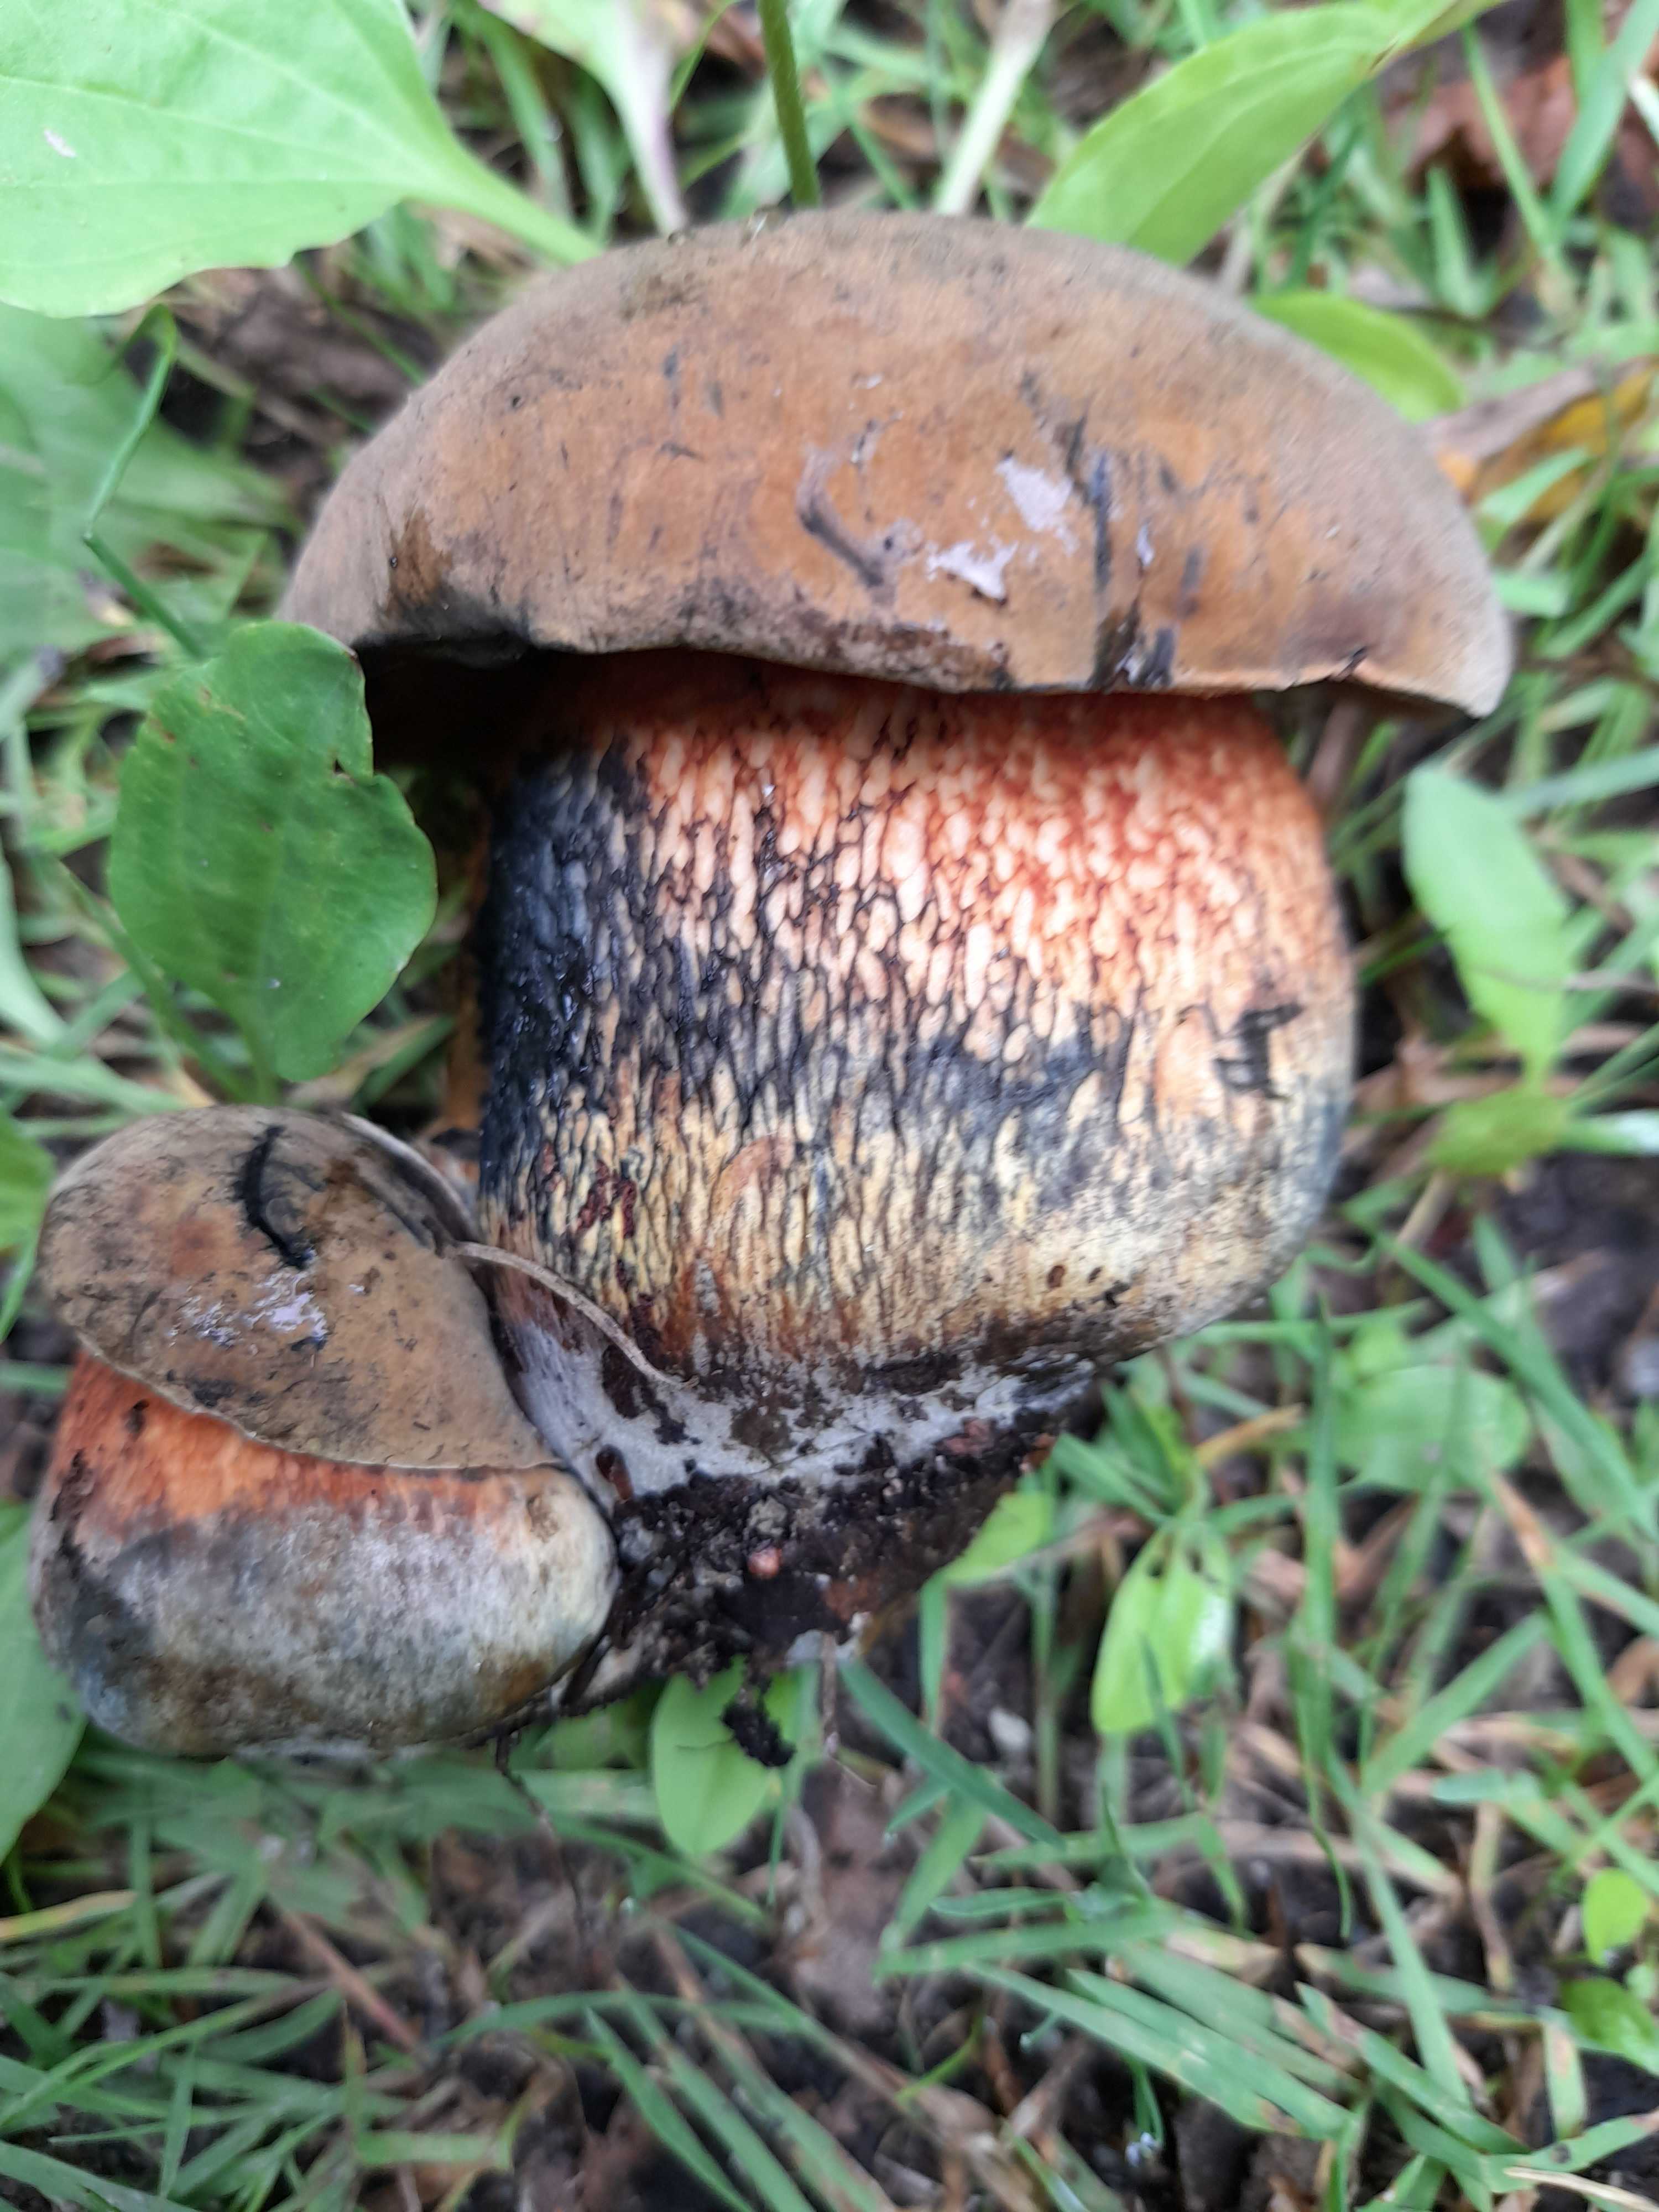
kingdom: Fungi
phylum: Basidiomycota
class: Agaricomycetes
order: Boletales
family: Boletaceae
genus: Suillellus
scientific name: Suillellus luridus
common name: netstokket indigorørhat
